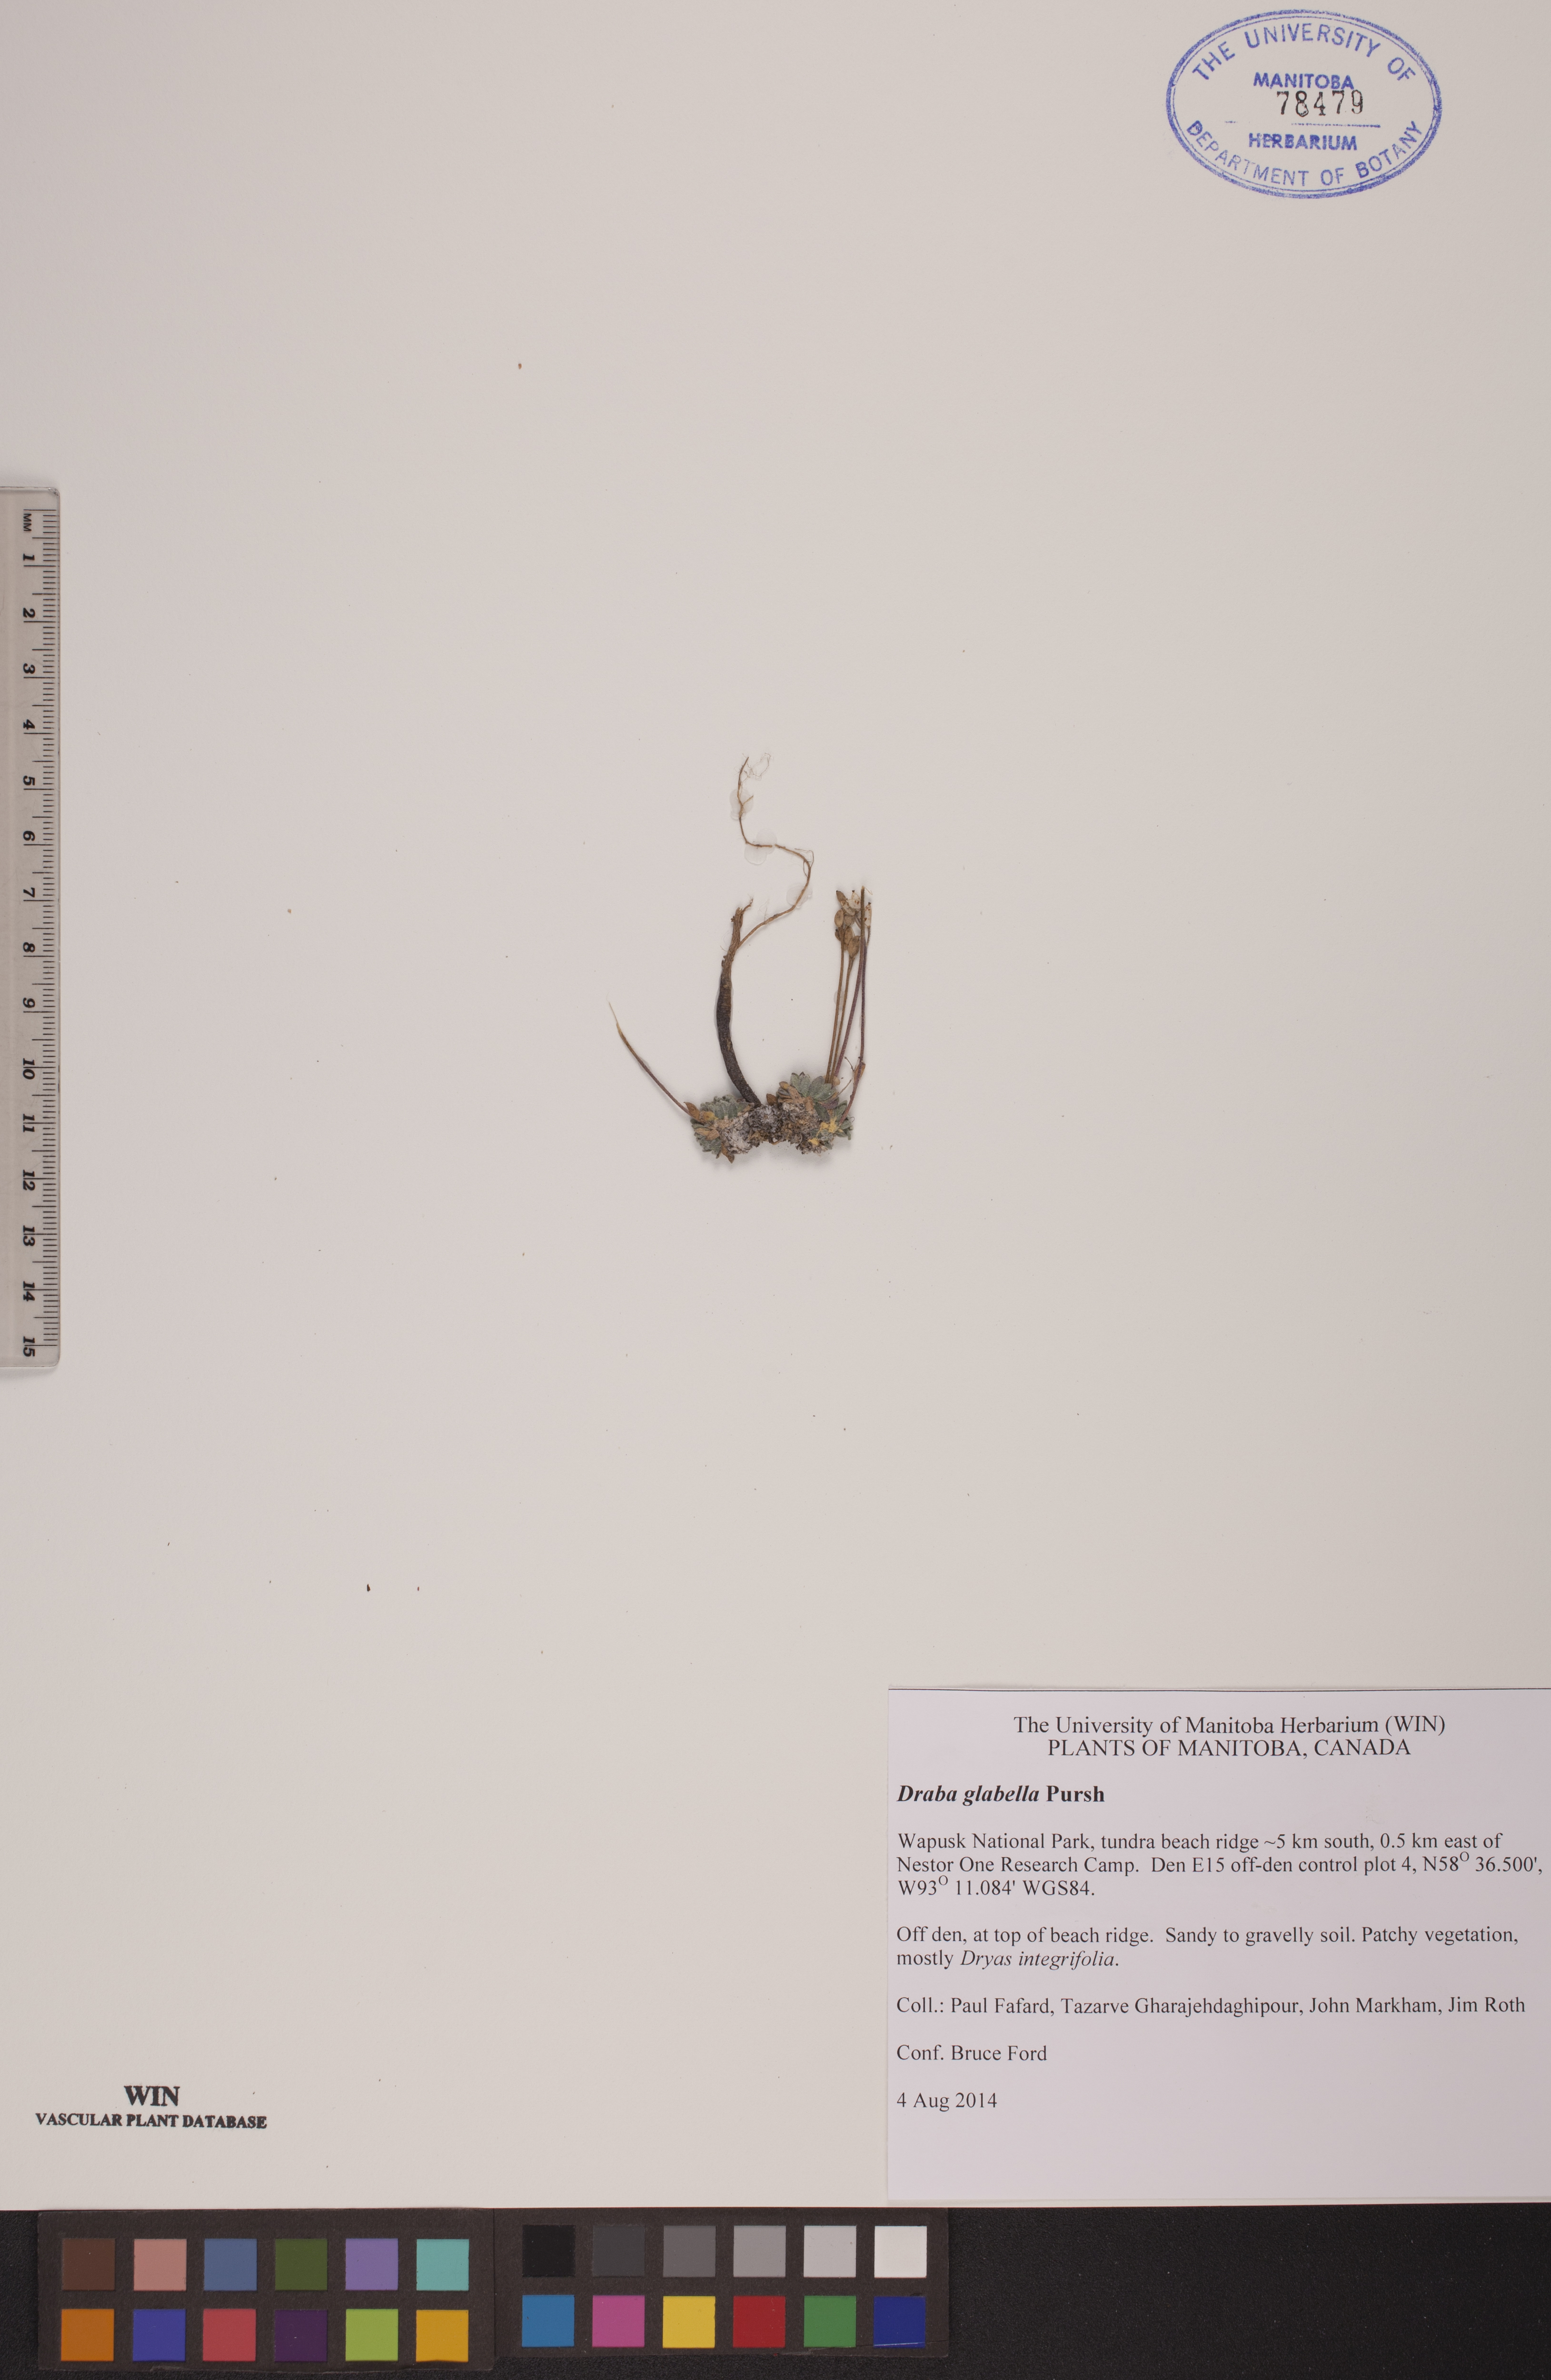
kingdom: Plantae
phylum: Tracheophyta
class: Magnoliopsida
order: Brassicales
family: Brassicaceae
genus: Draba
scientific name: Draba glabella
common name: Glaucous draba
